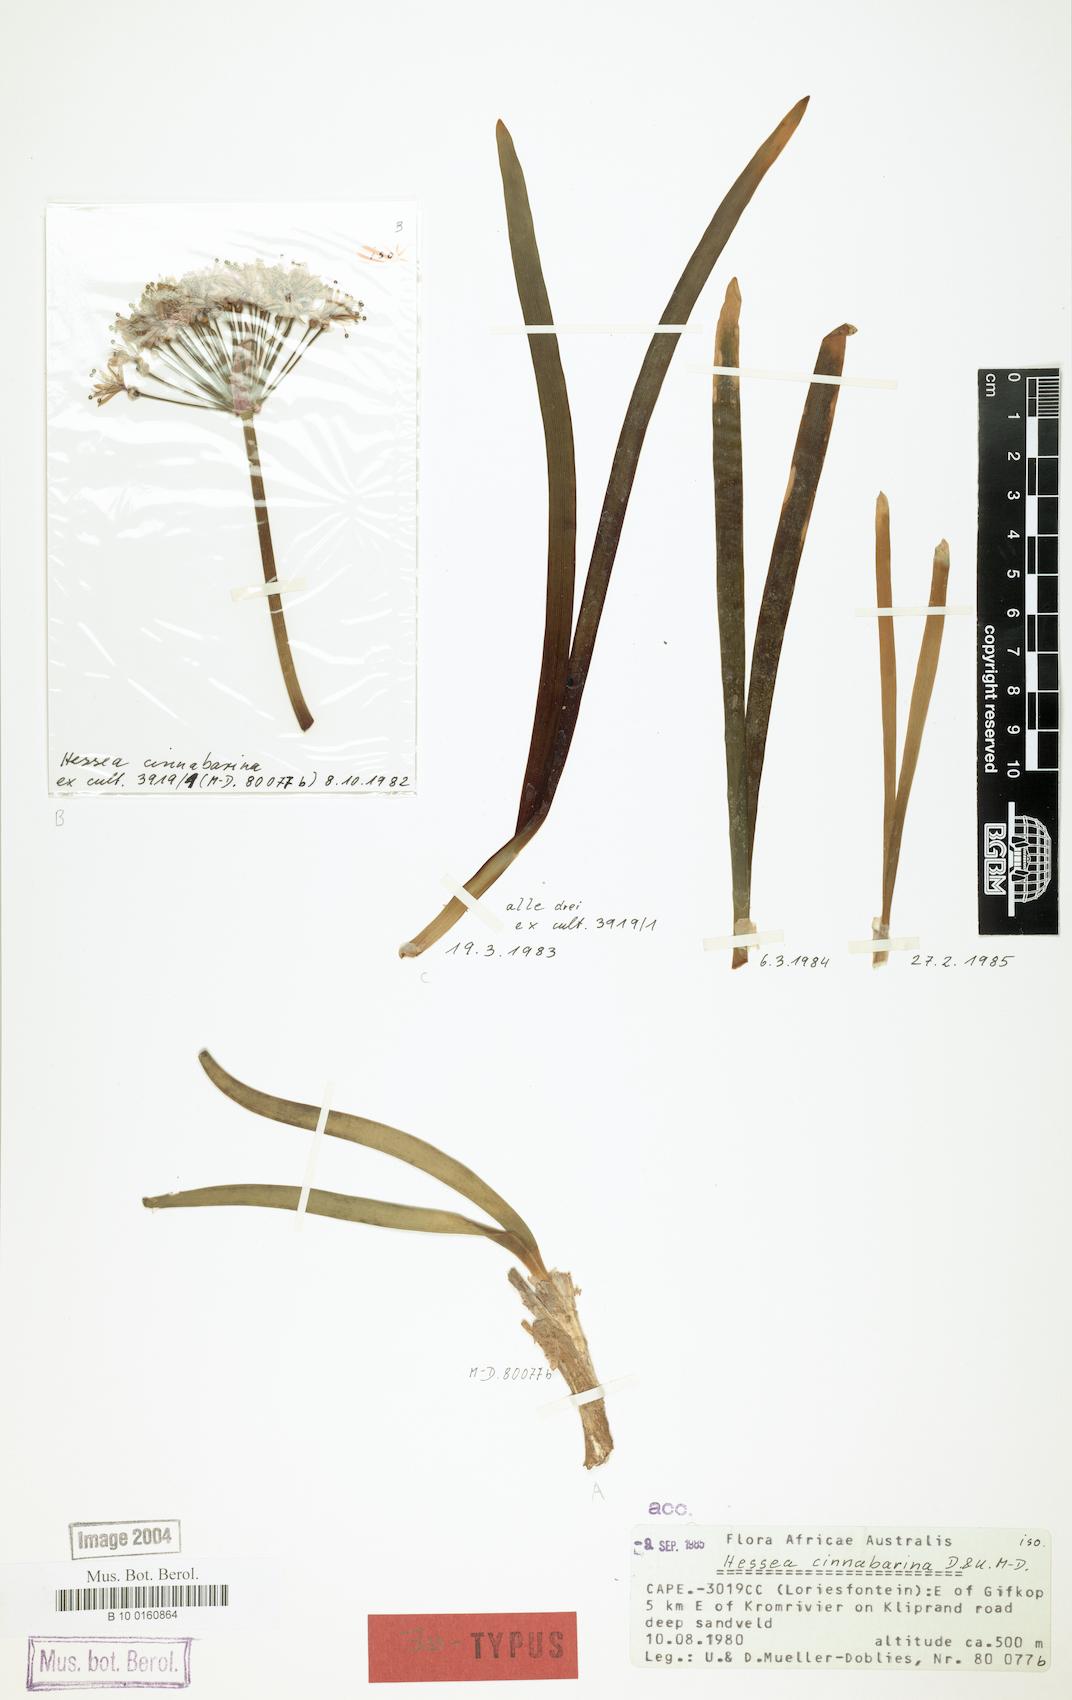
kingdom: Plantae
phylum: Tracheophyta
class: Liliopsida
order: Asparagales
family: Amaryllidaceae
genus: Hessea
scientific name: Hessea stellaris
